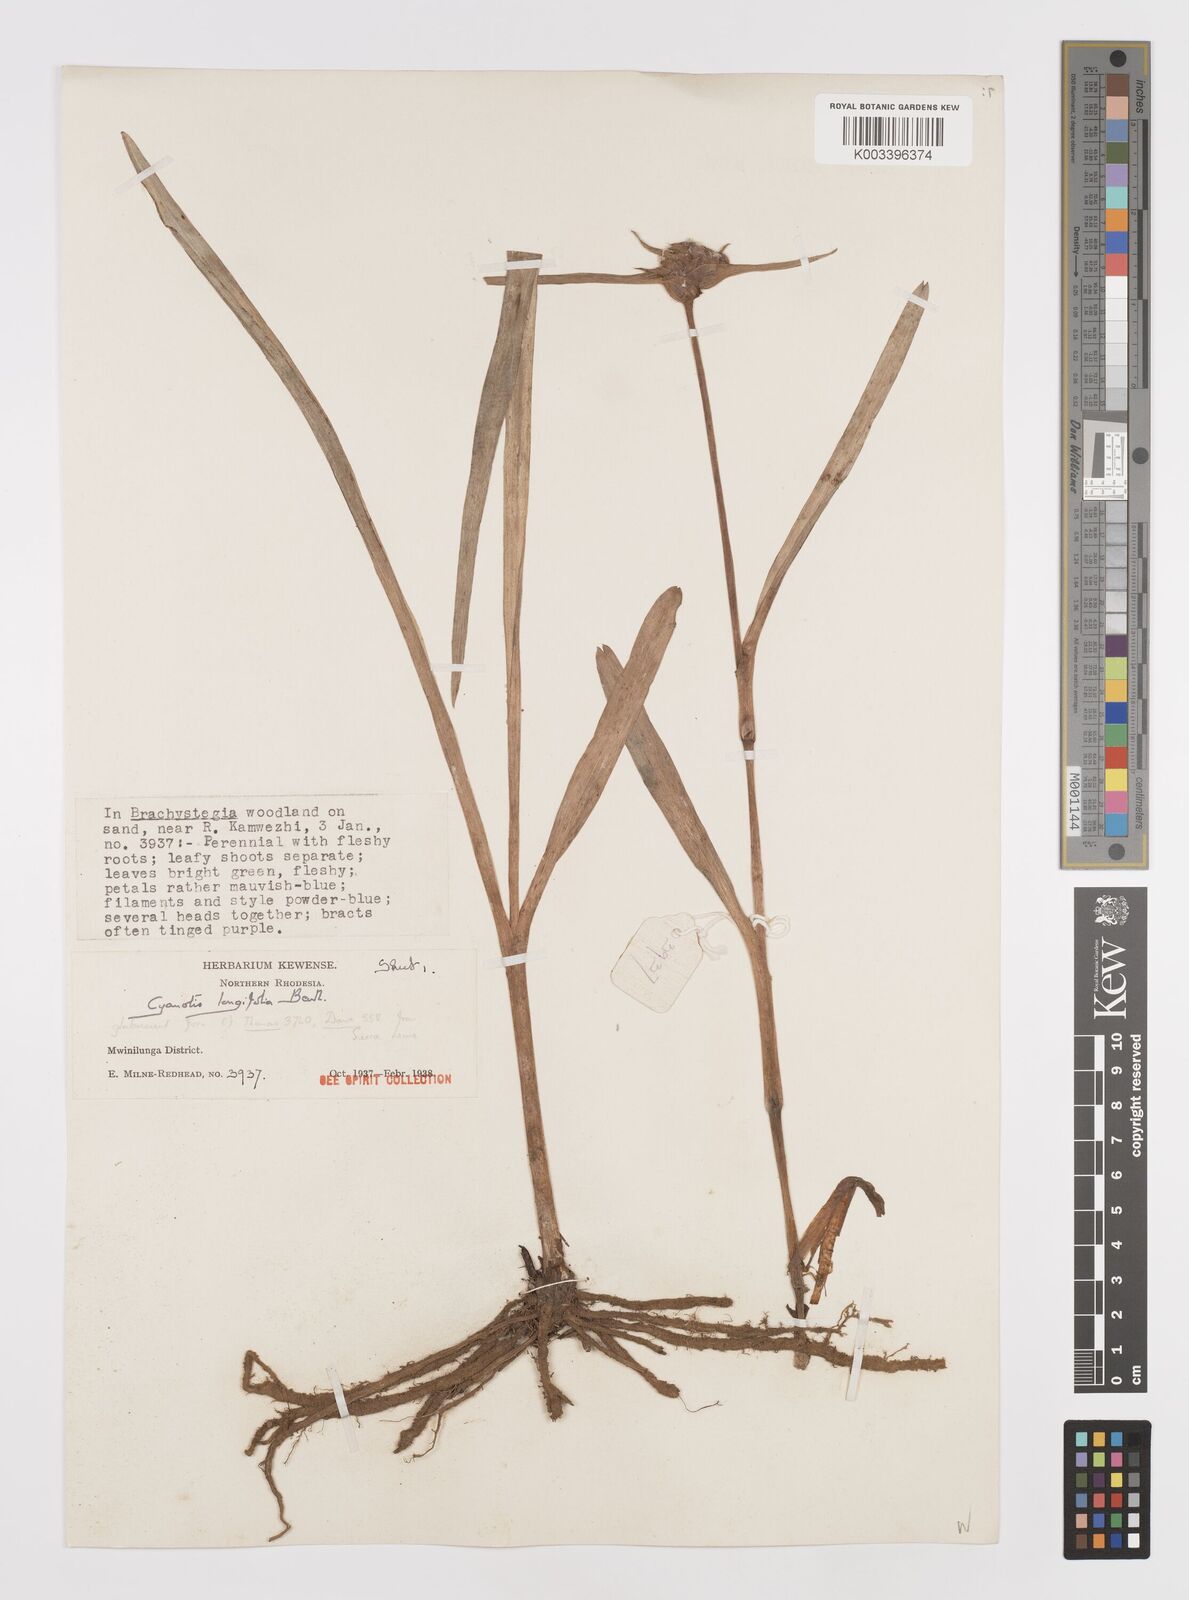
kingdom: Plantae
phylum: Tracheophyta
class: Liliopsida
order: Commelinales
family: Commelinaceae
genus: Cyanotis
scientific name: Cyanotis longifolia
